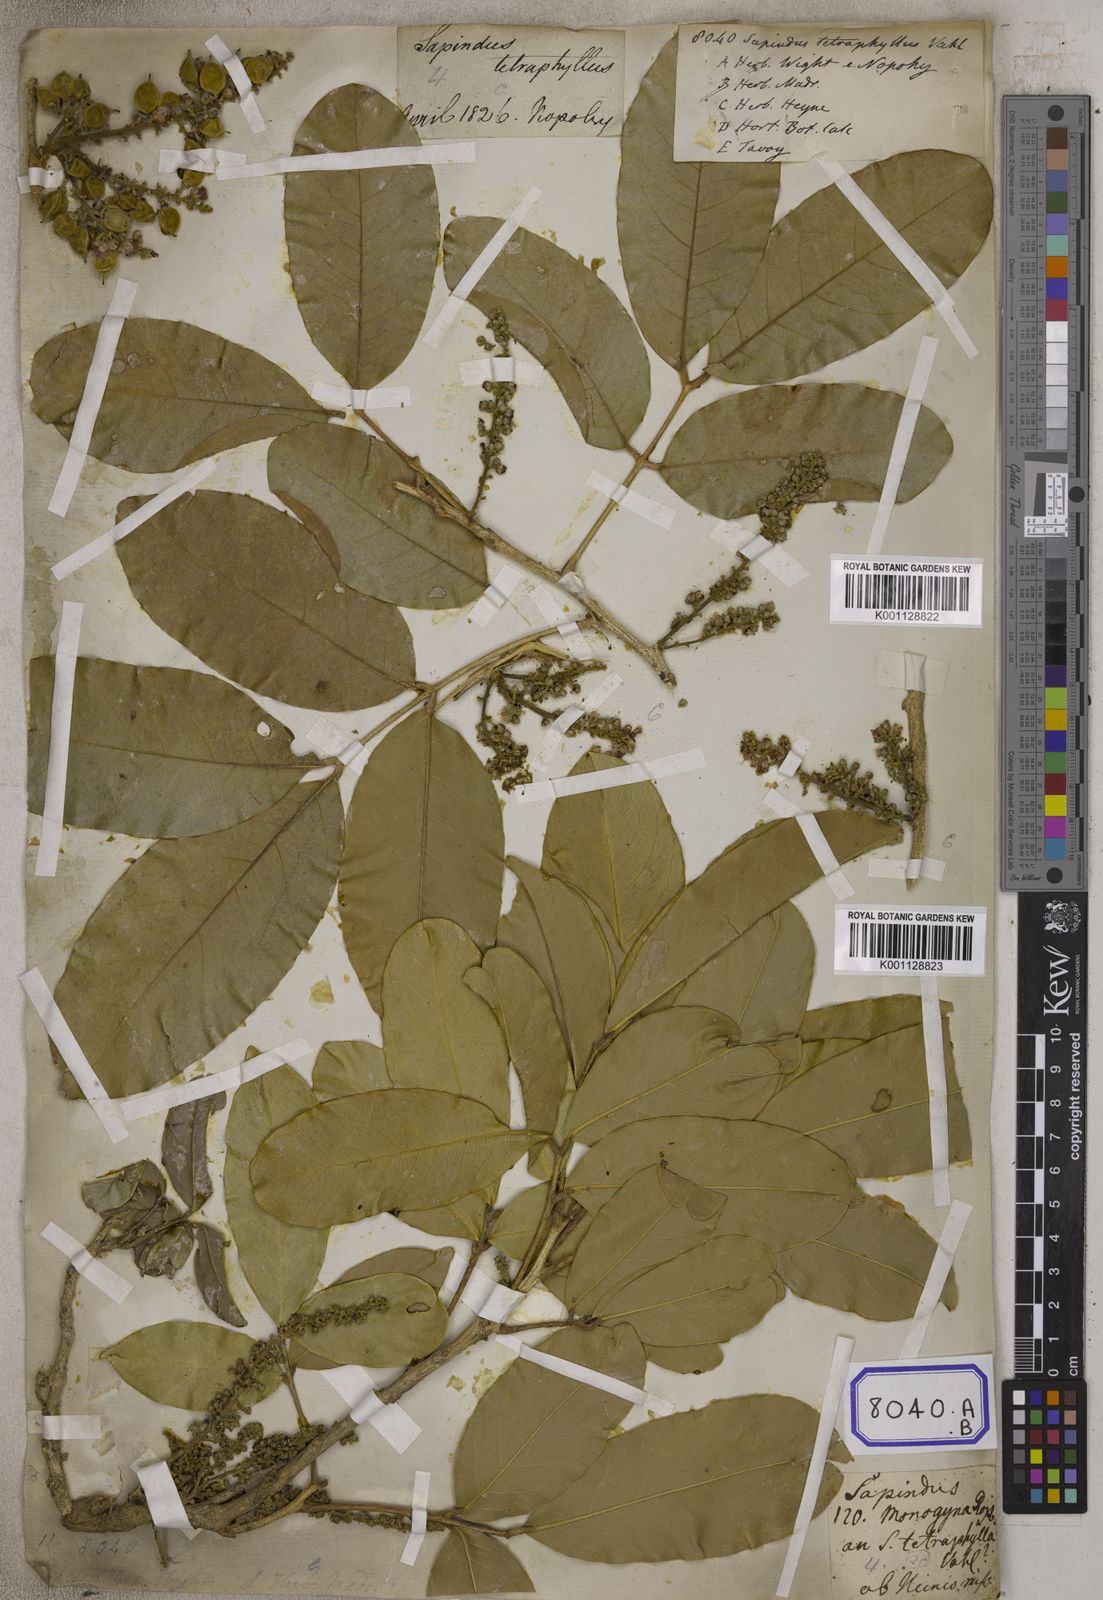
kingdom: Plantae
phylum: Tracheophyta
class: Magnoliopsida
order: Sapindales
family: Sapindaceae
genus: Lepisanthes
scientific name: Lepisanthes tetraphylla
